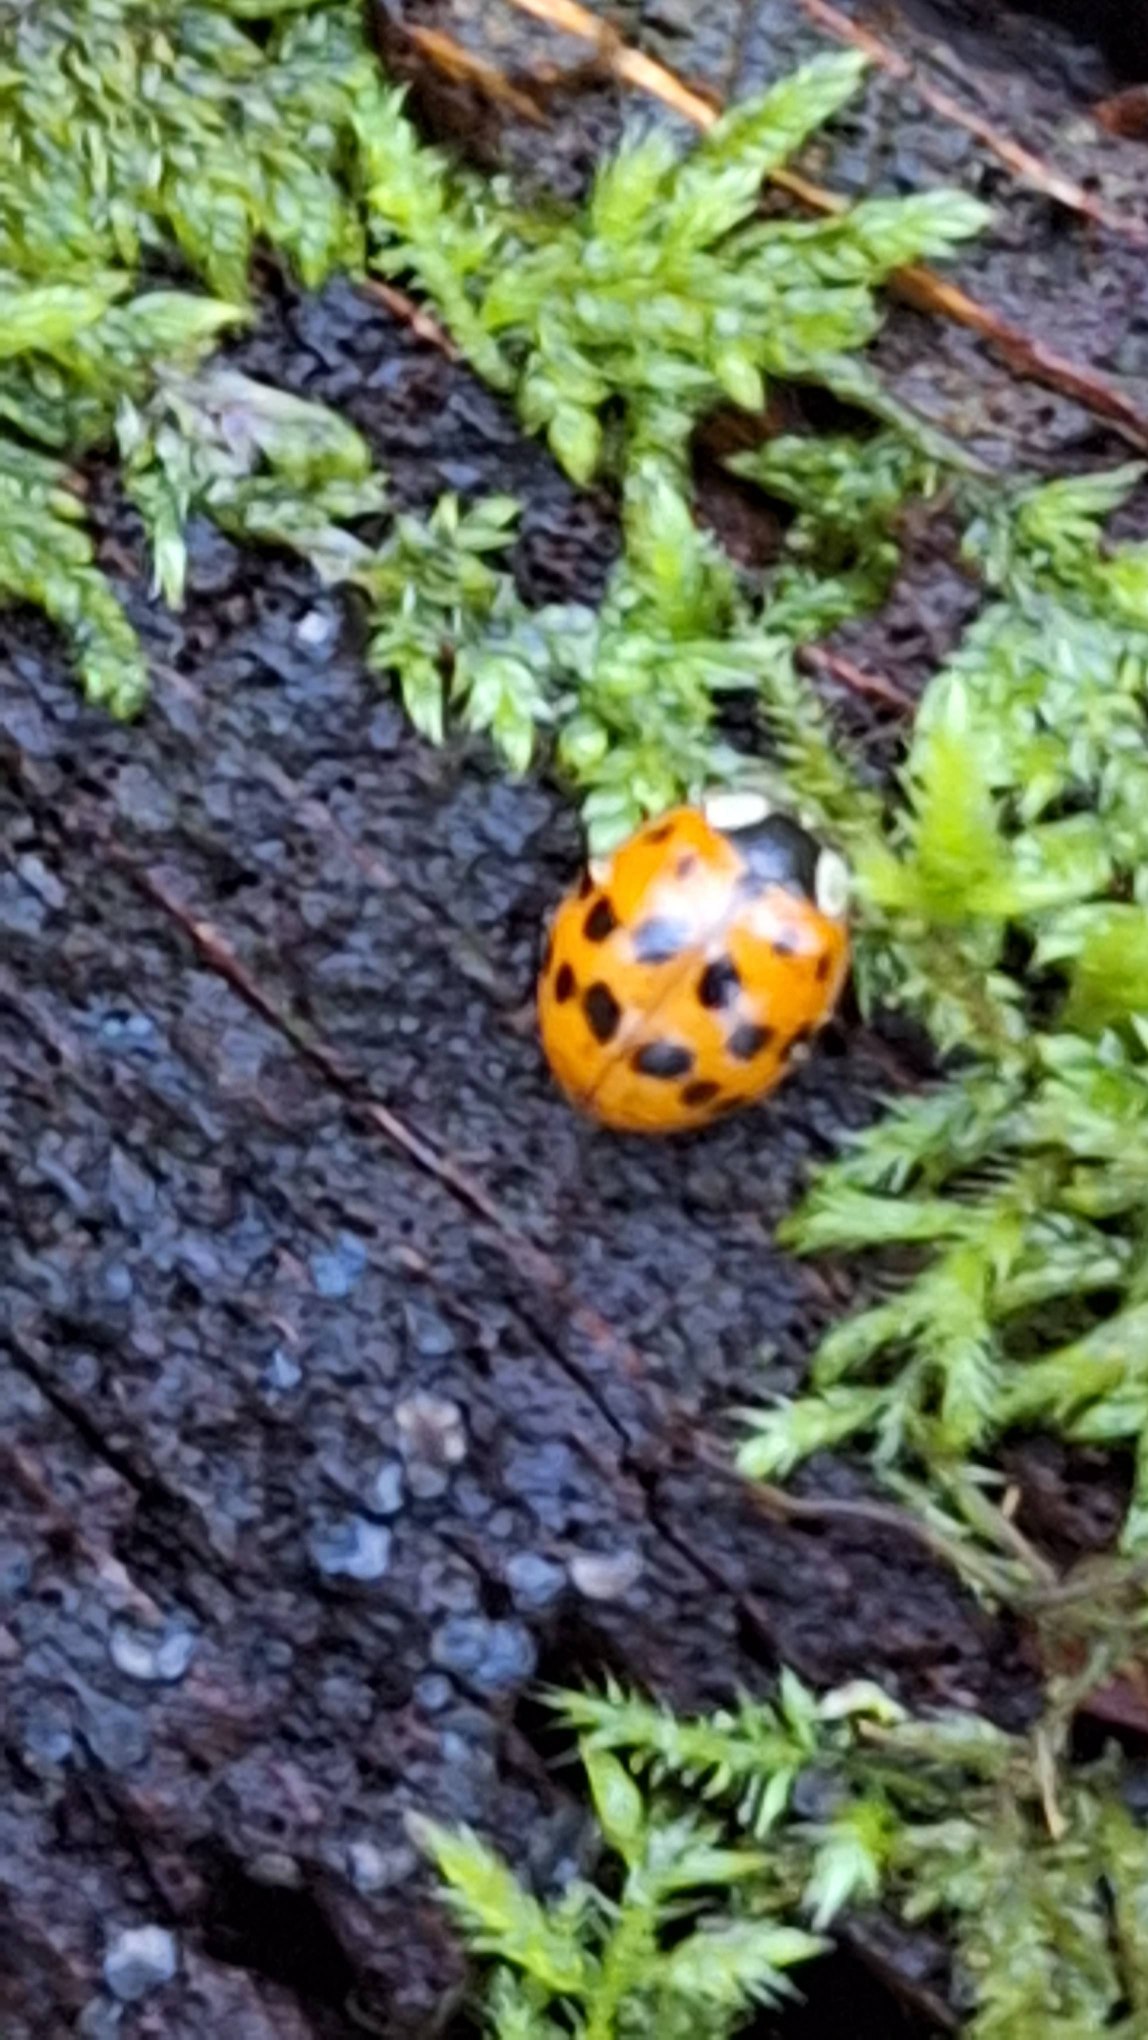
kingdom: Animalia
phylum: Arthropoda
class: Insecta
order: Coleoptera
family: Coccinellidae
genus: Harmonia
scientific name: Harmonia axyridis
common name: Harlekinmariehøne
